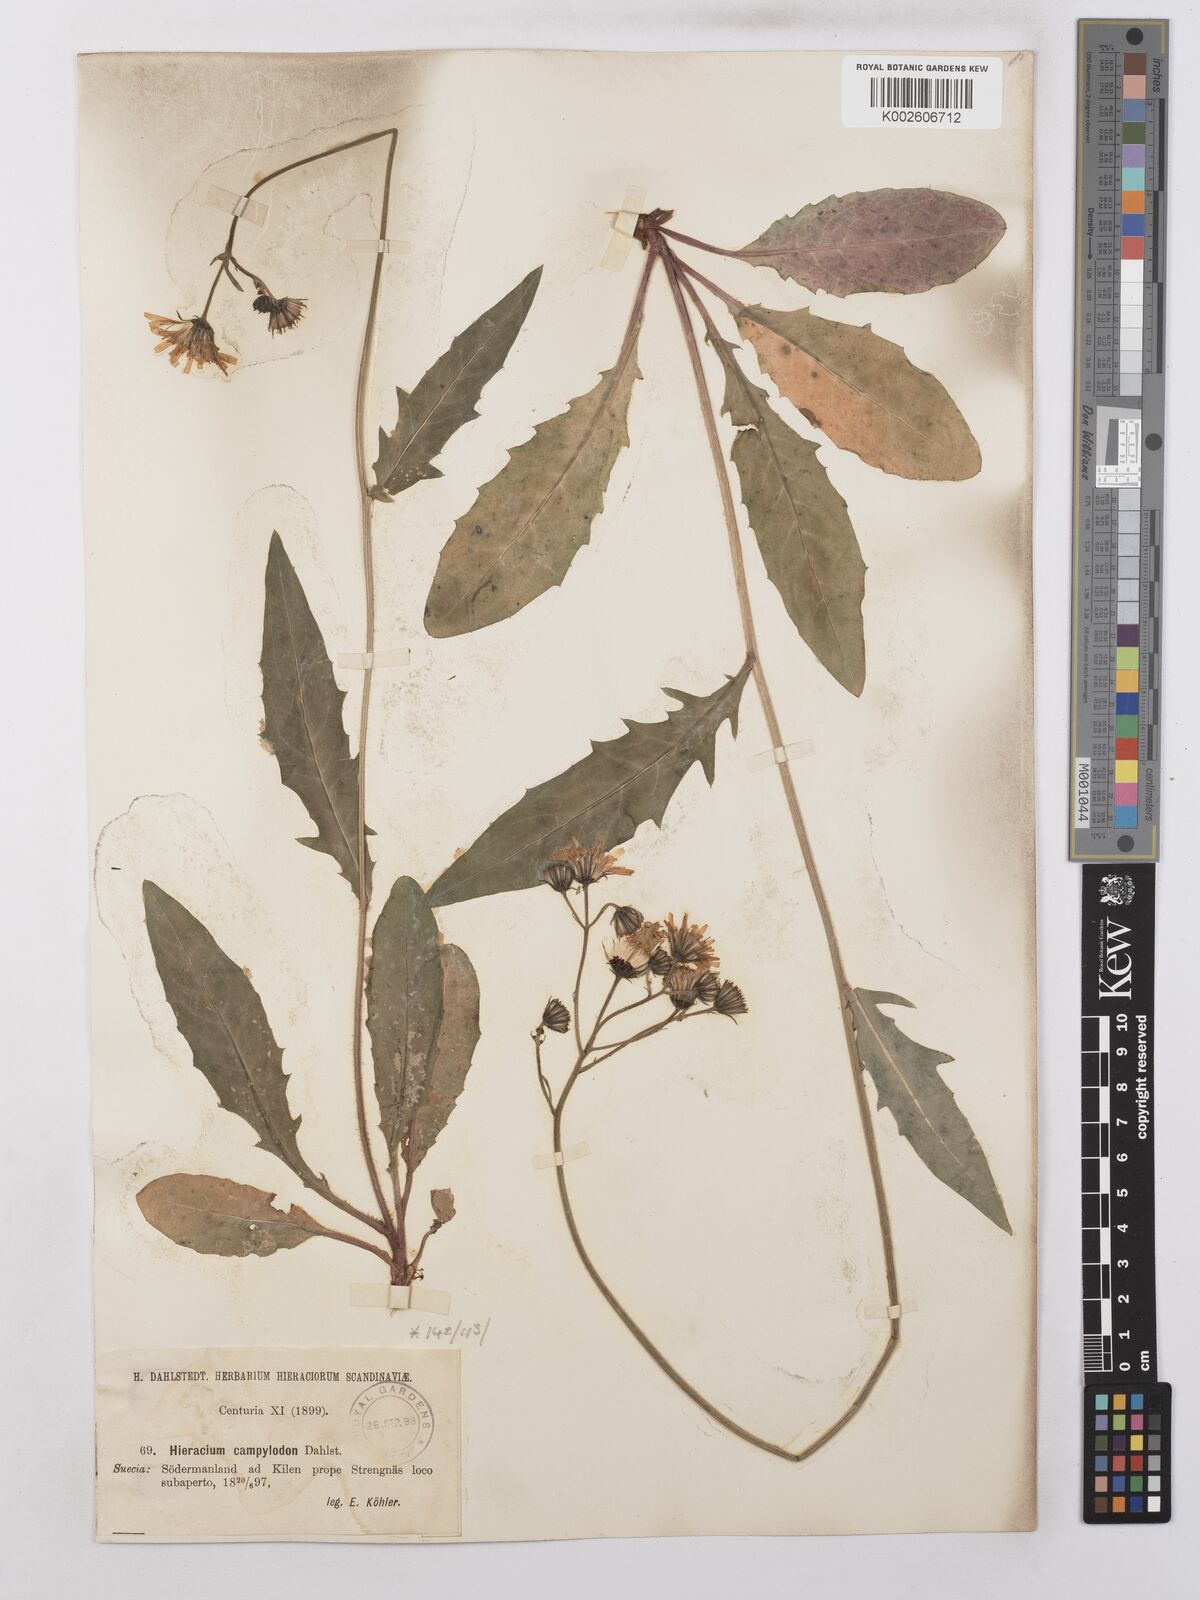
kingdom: Plantae
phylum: Tracheophyta
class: Magnoliopsida
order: Asterales
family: Asteraceae
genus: Hieracium
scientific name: Hieracium lachenalii
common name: Common hawkweed
